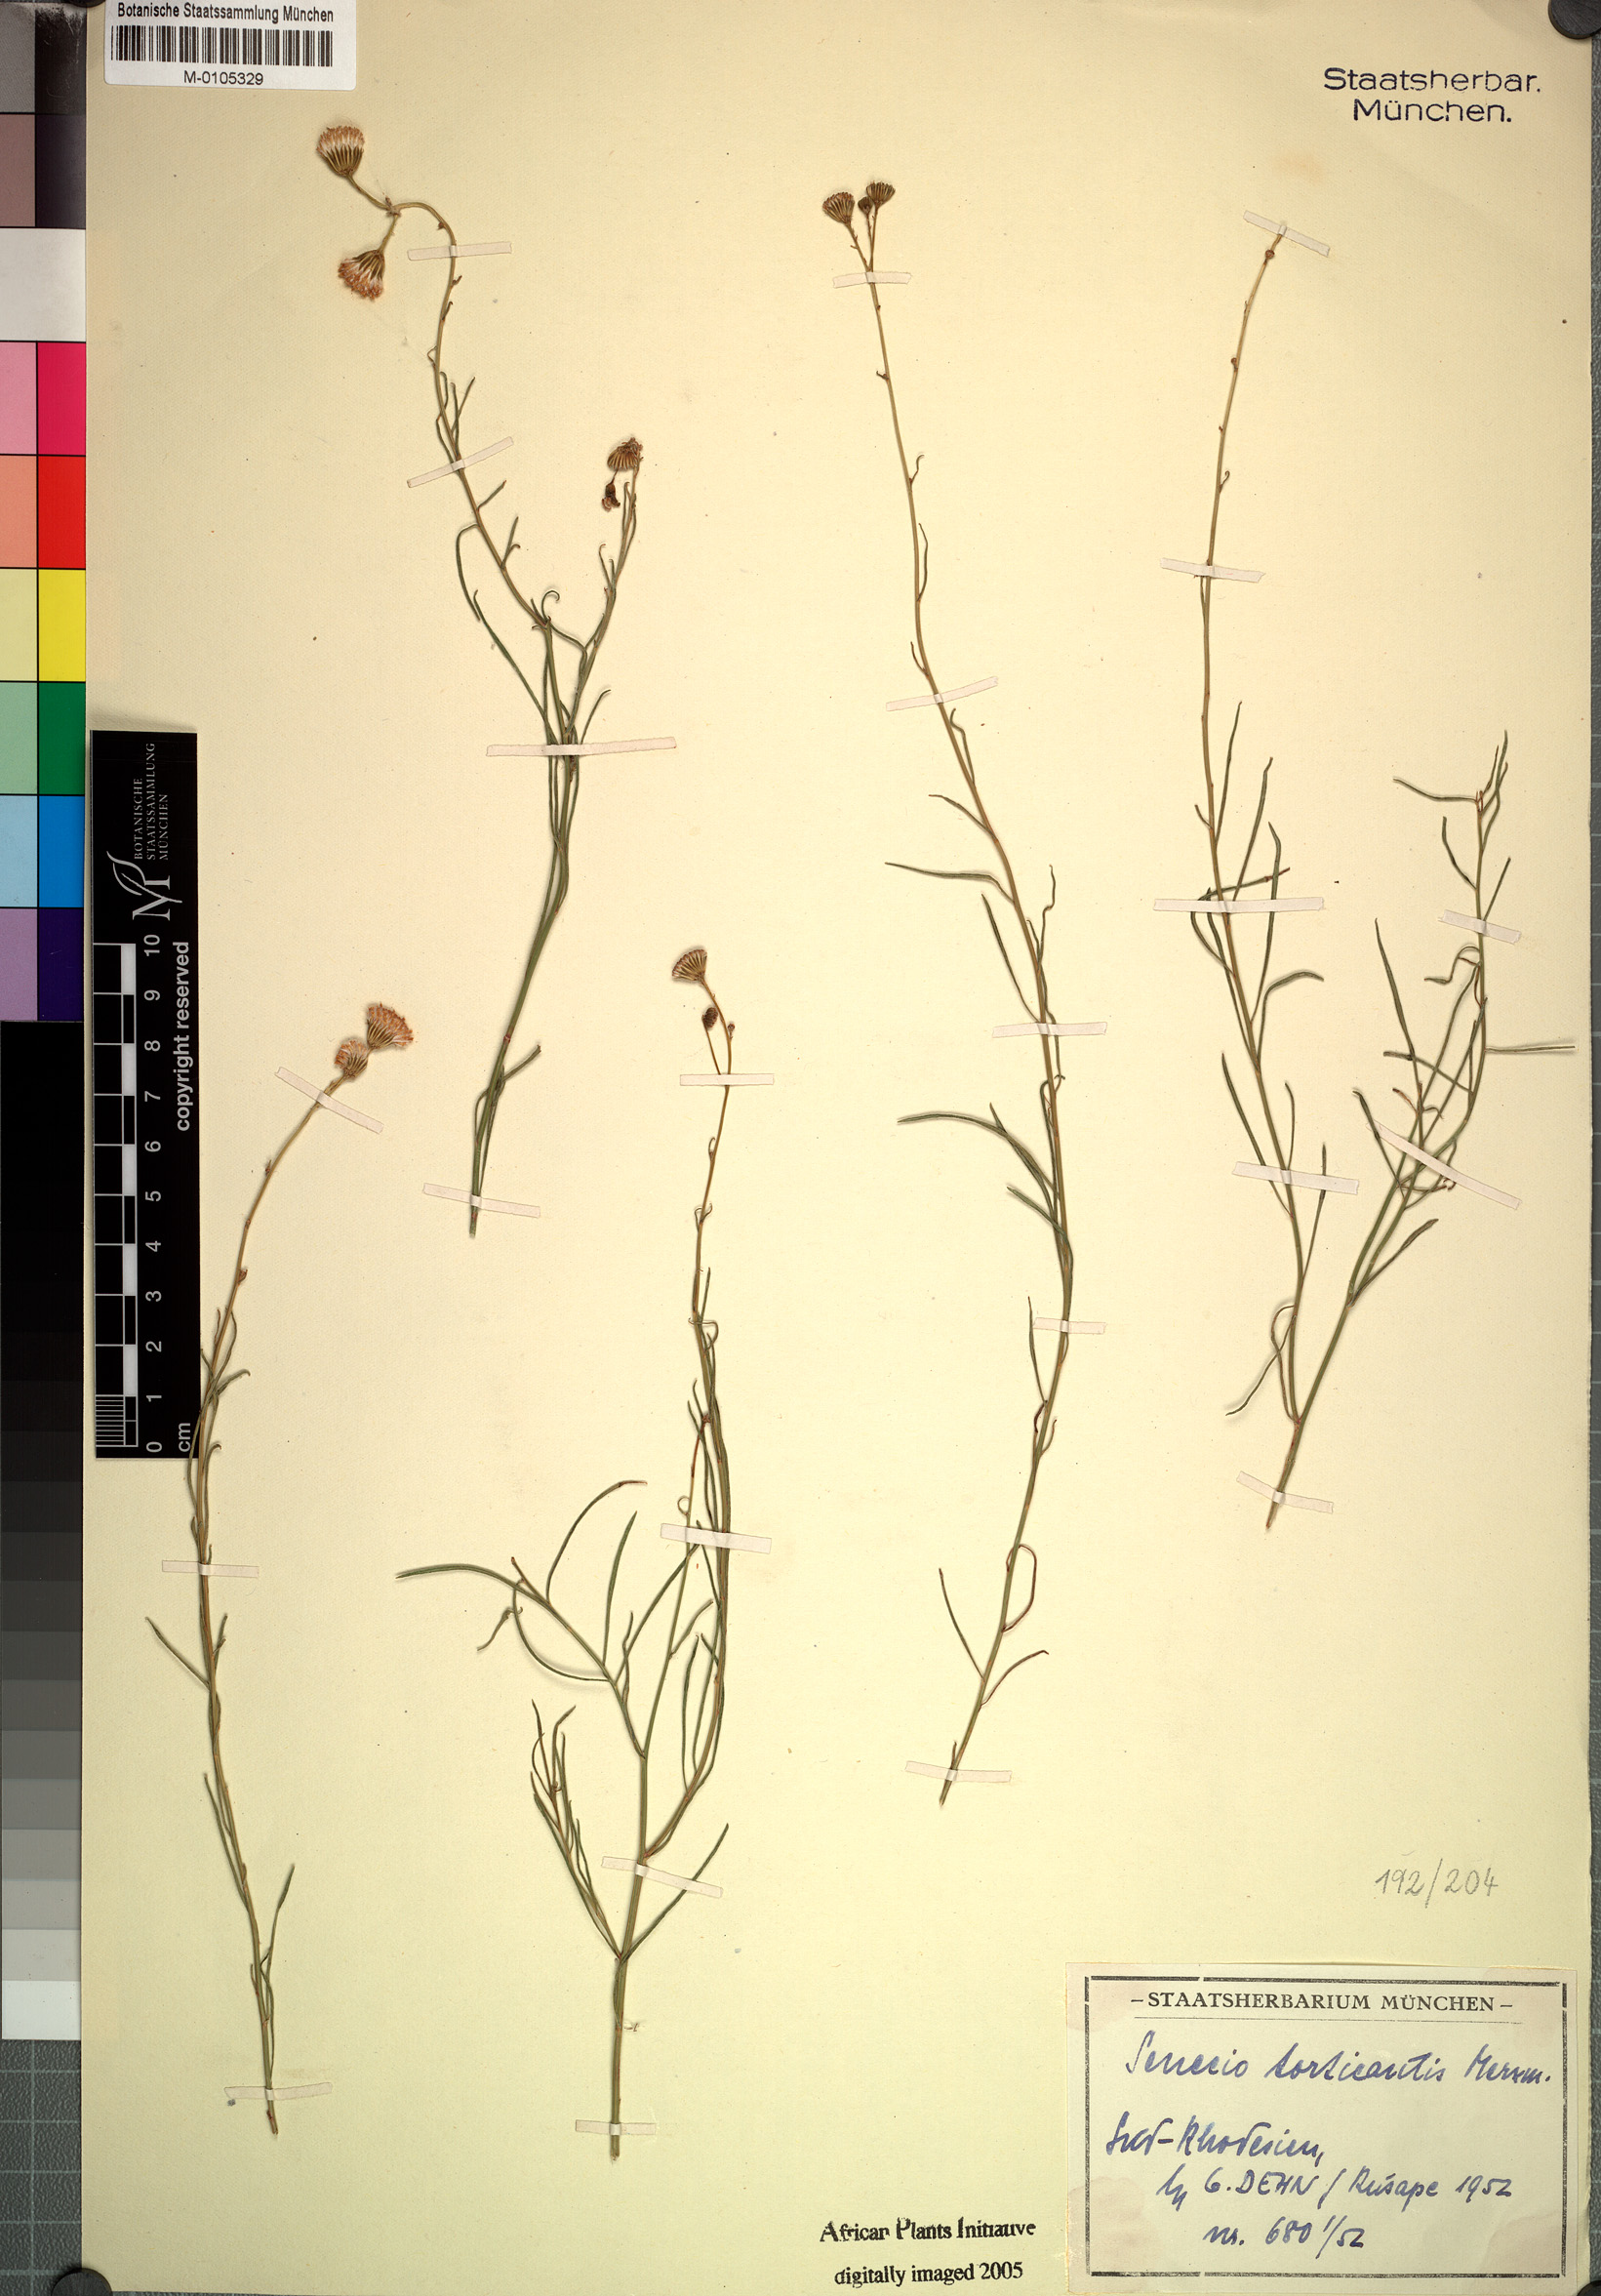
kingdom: Plantae
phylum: Tracheophyta
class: Magnoliopsida
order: Asterales
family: Asteraceae
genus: Senecio
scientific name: Senecio torticaulis
